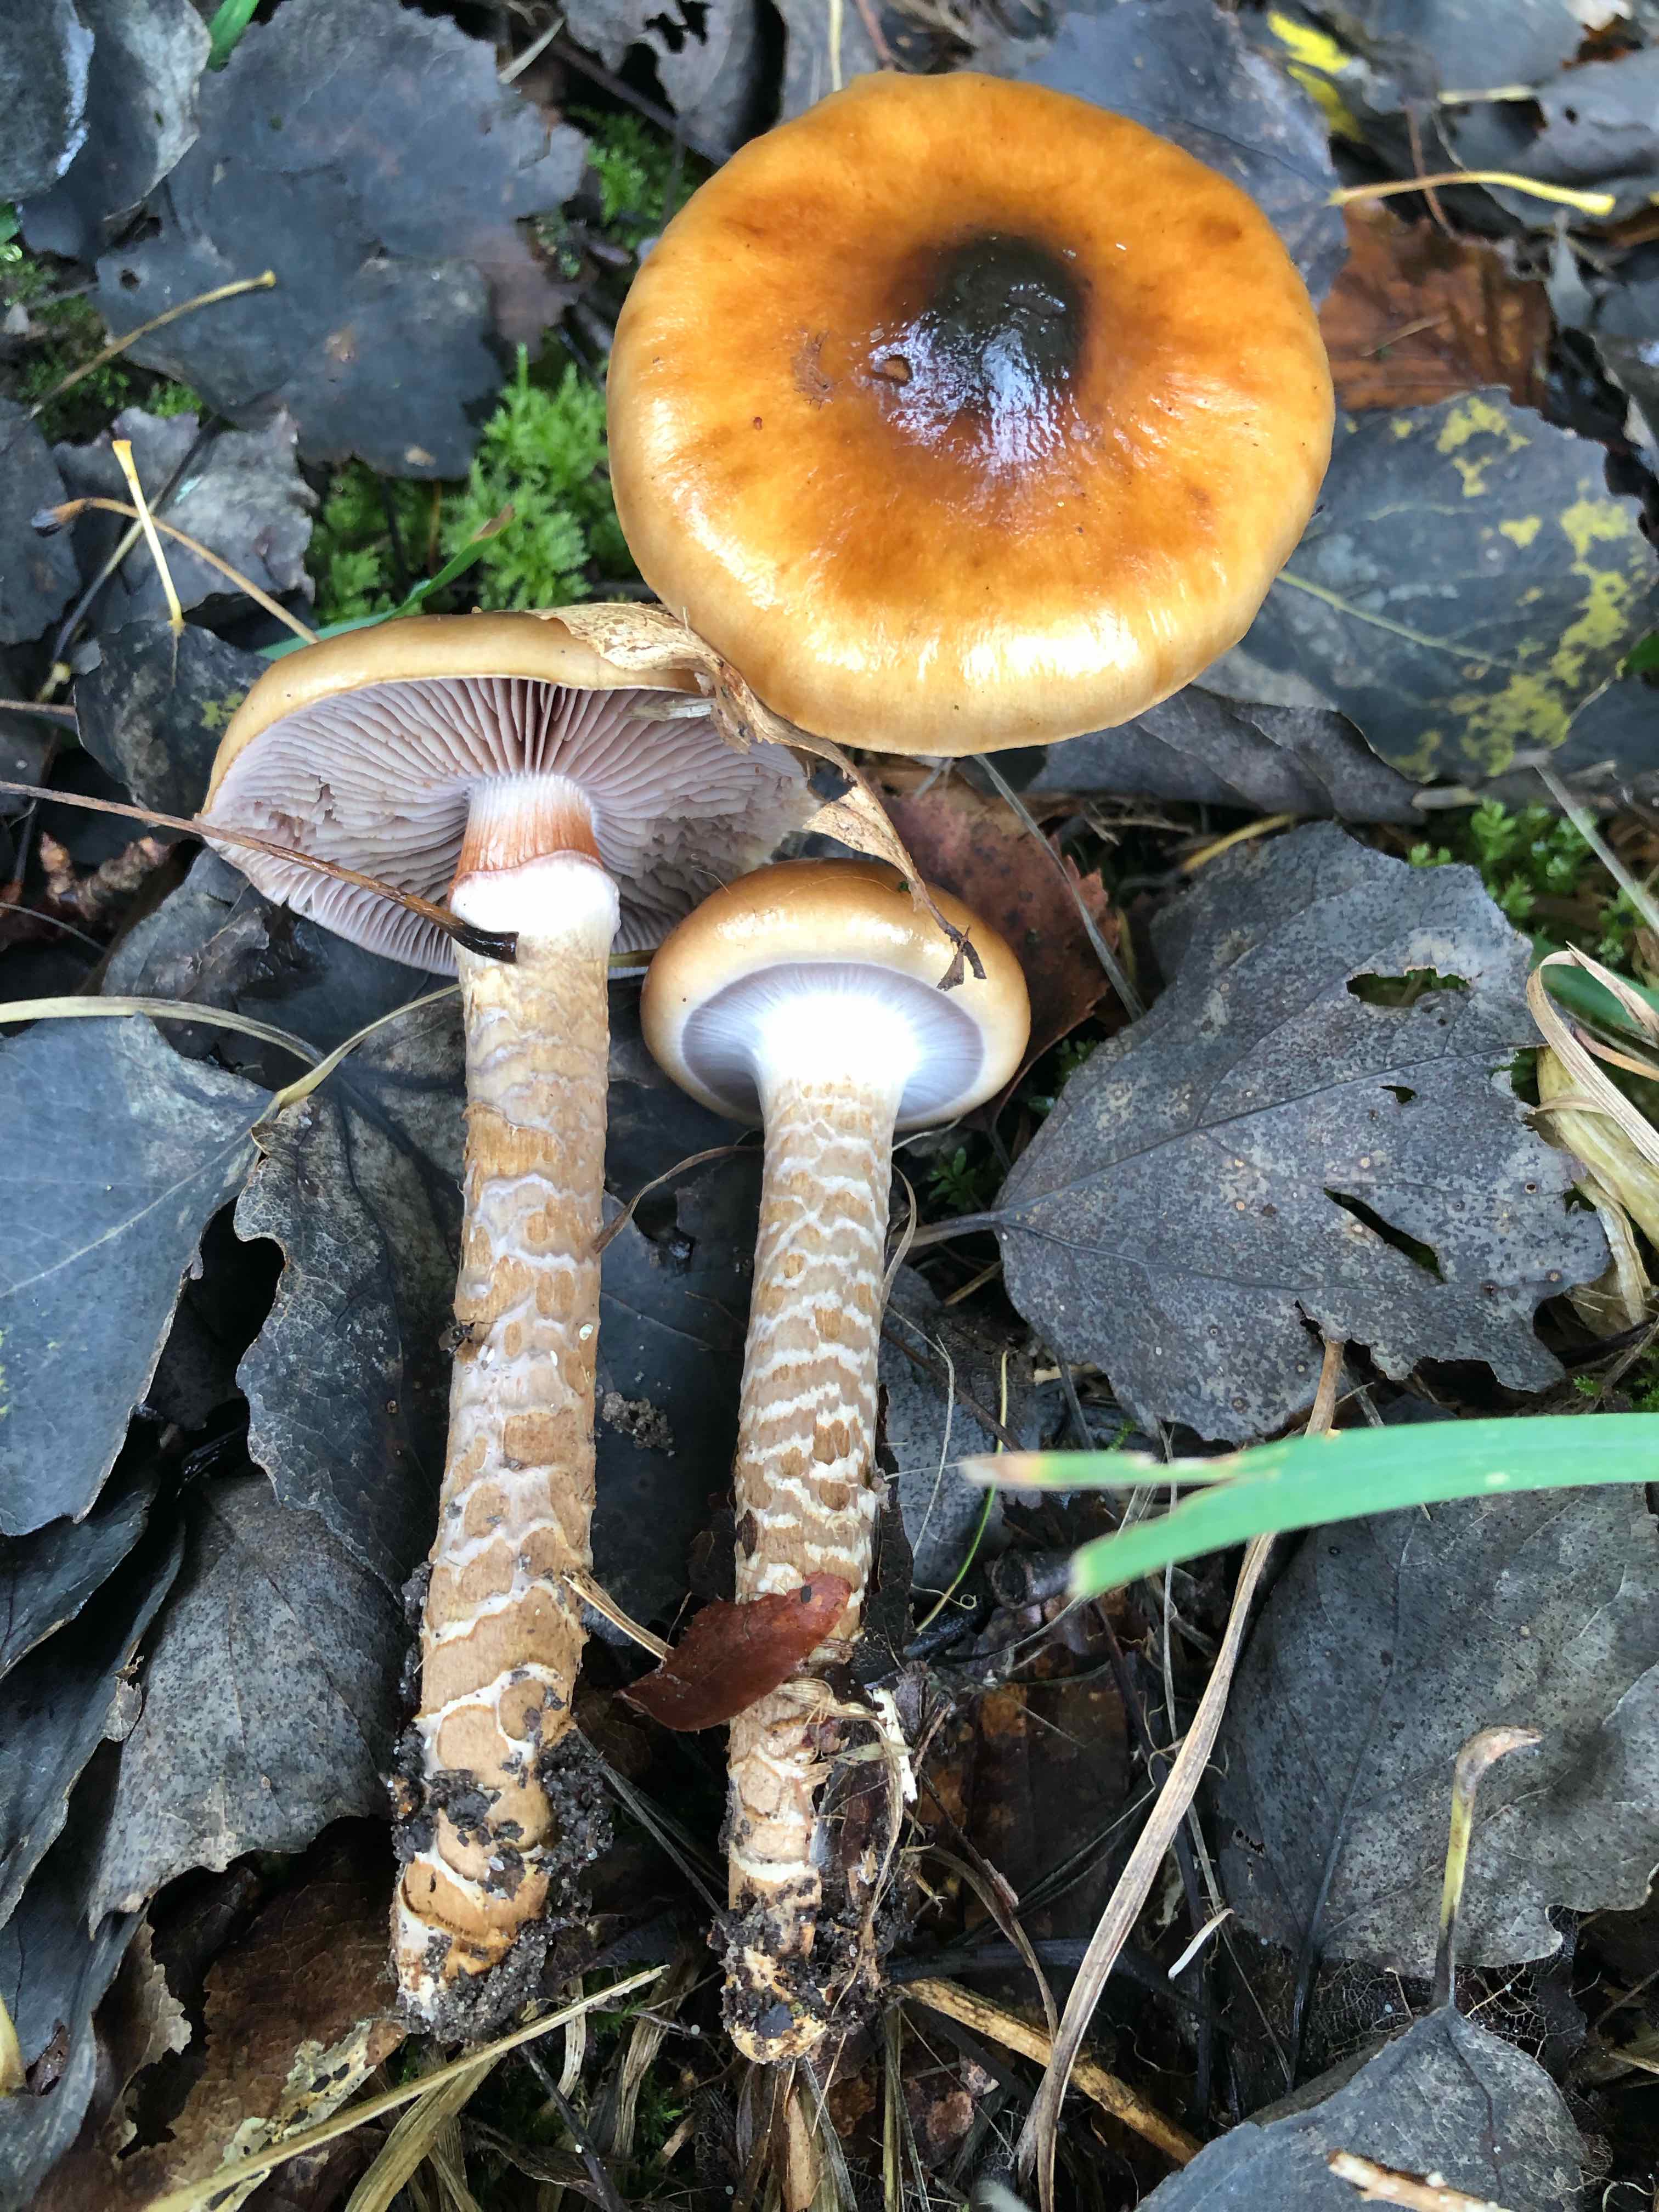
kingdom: Fungi
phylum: Basidiomycota
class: Agaricomycetes
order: Agaricales
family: Cortinariaceae
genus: Cortinarius
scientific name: Cortinarius trivialis
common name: Girdled webcap
